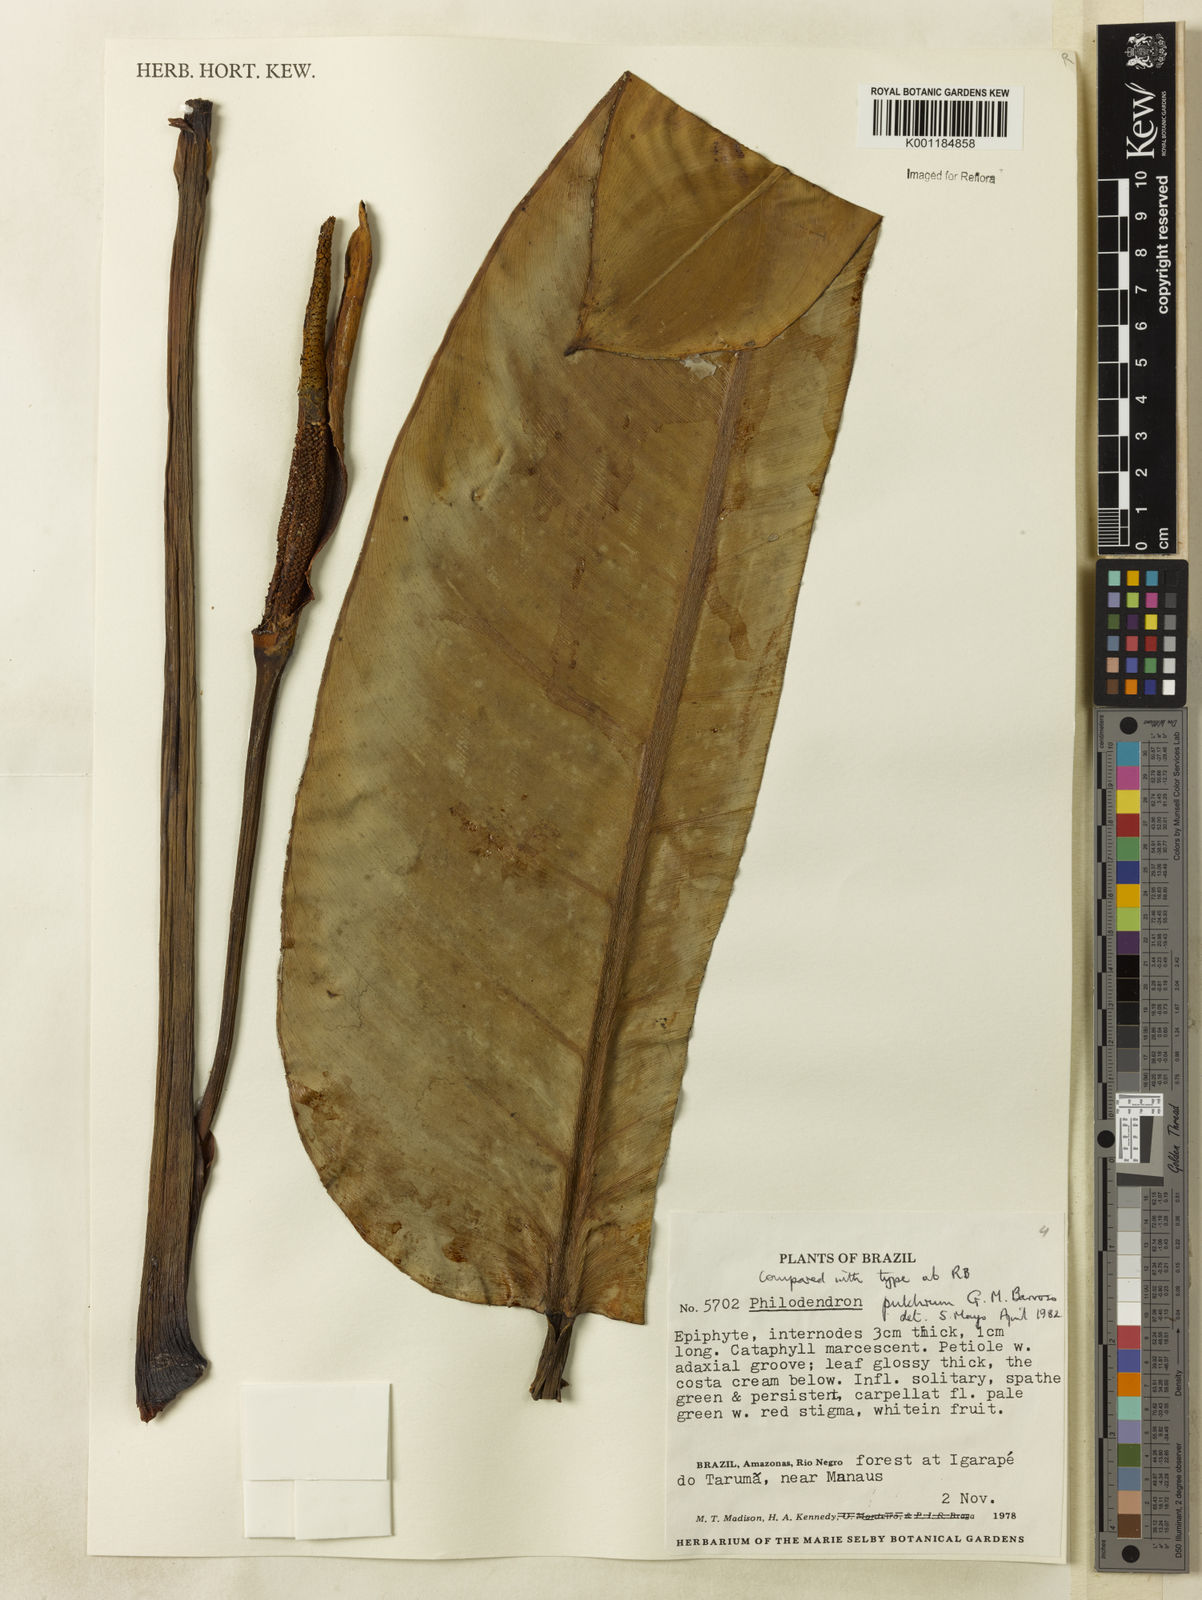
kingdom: Plantae
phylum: Tracheophyta
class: Liliopsida
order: Alismatales
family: Araceae
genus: Philodendron
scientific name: Philodendron pulchrum
